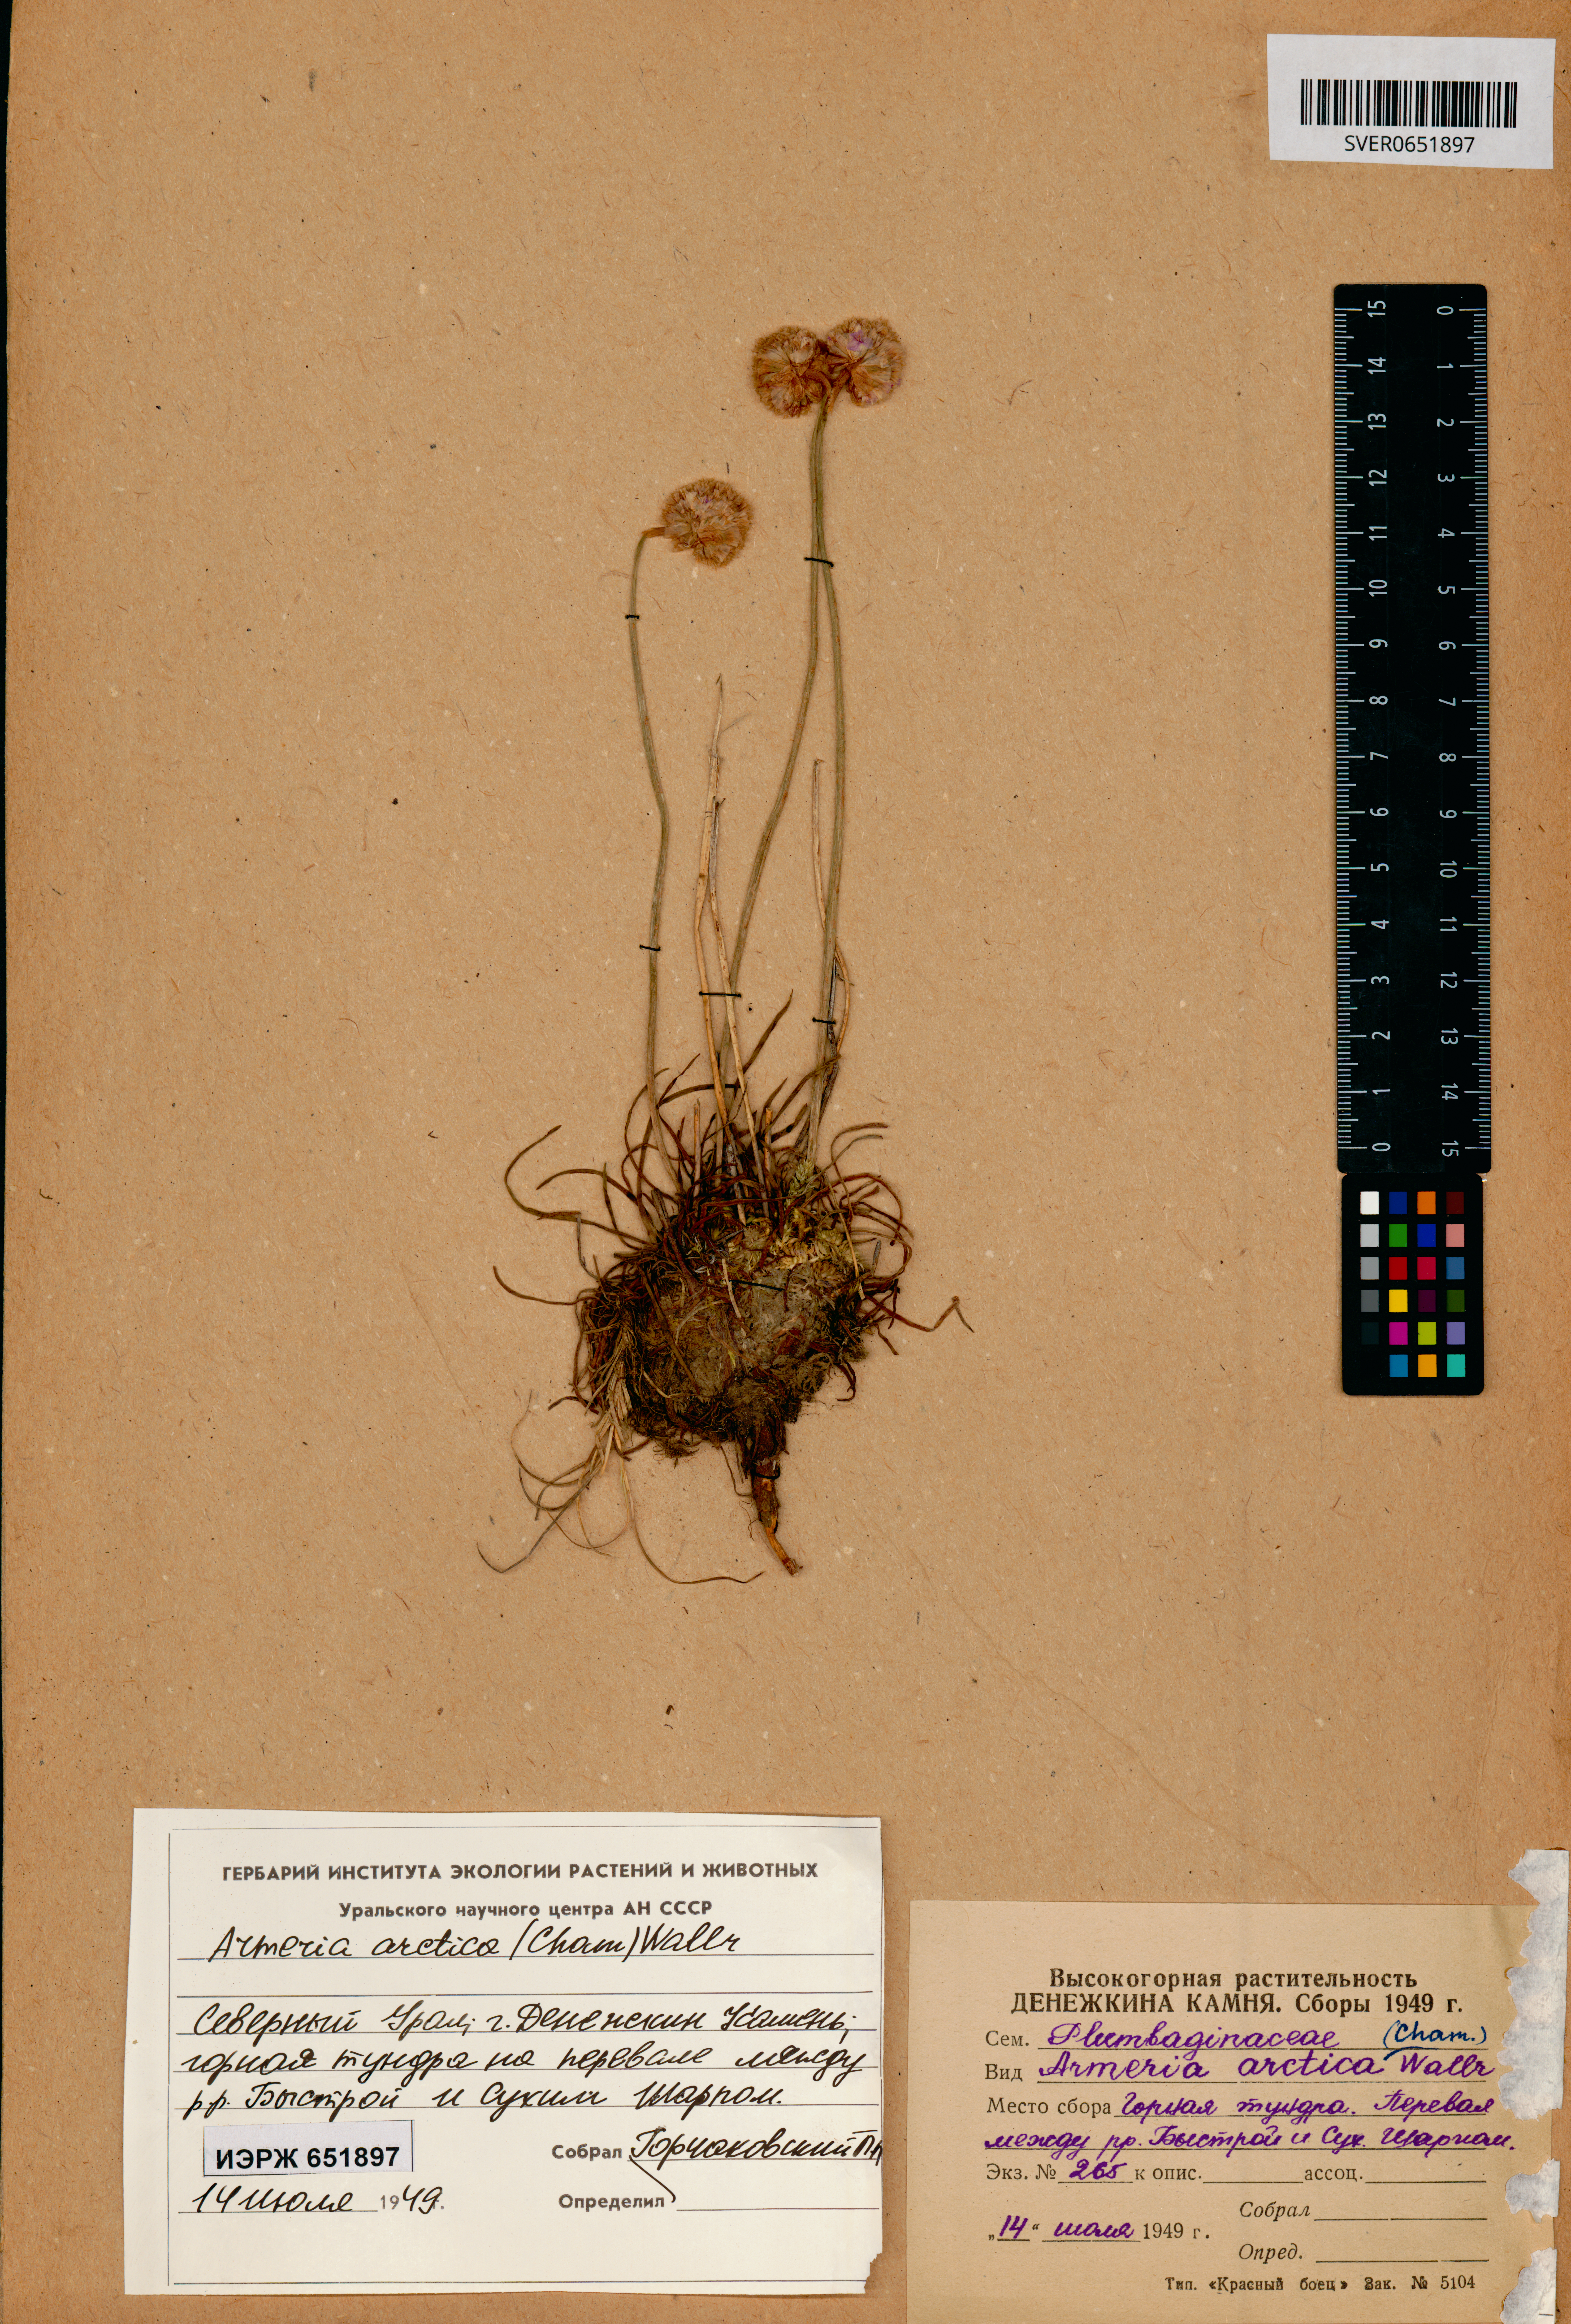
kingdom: Plantae
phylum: Tracheophyta
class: Magnoliopsida
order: Caryophyllales
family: Plumbaginaceae
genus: Armeria
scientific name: Armeria maritima
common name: Thrift
